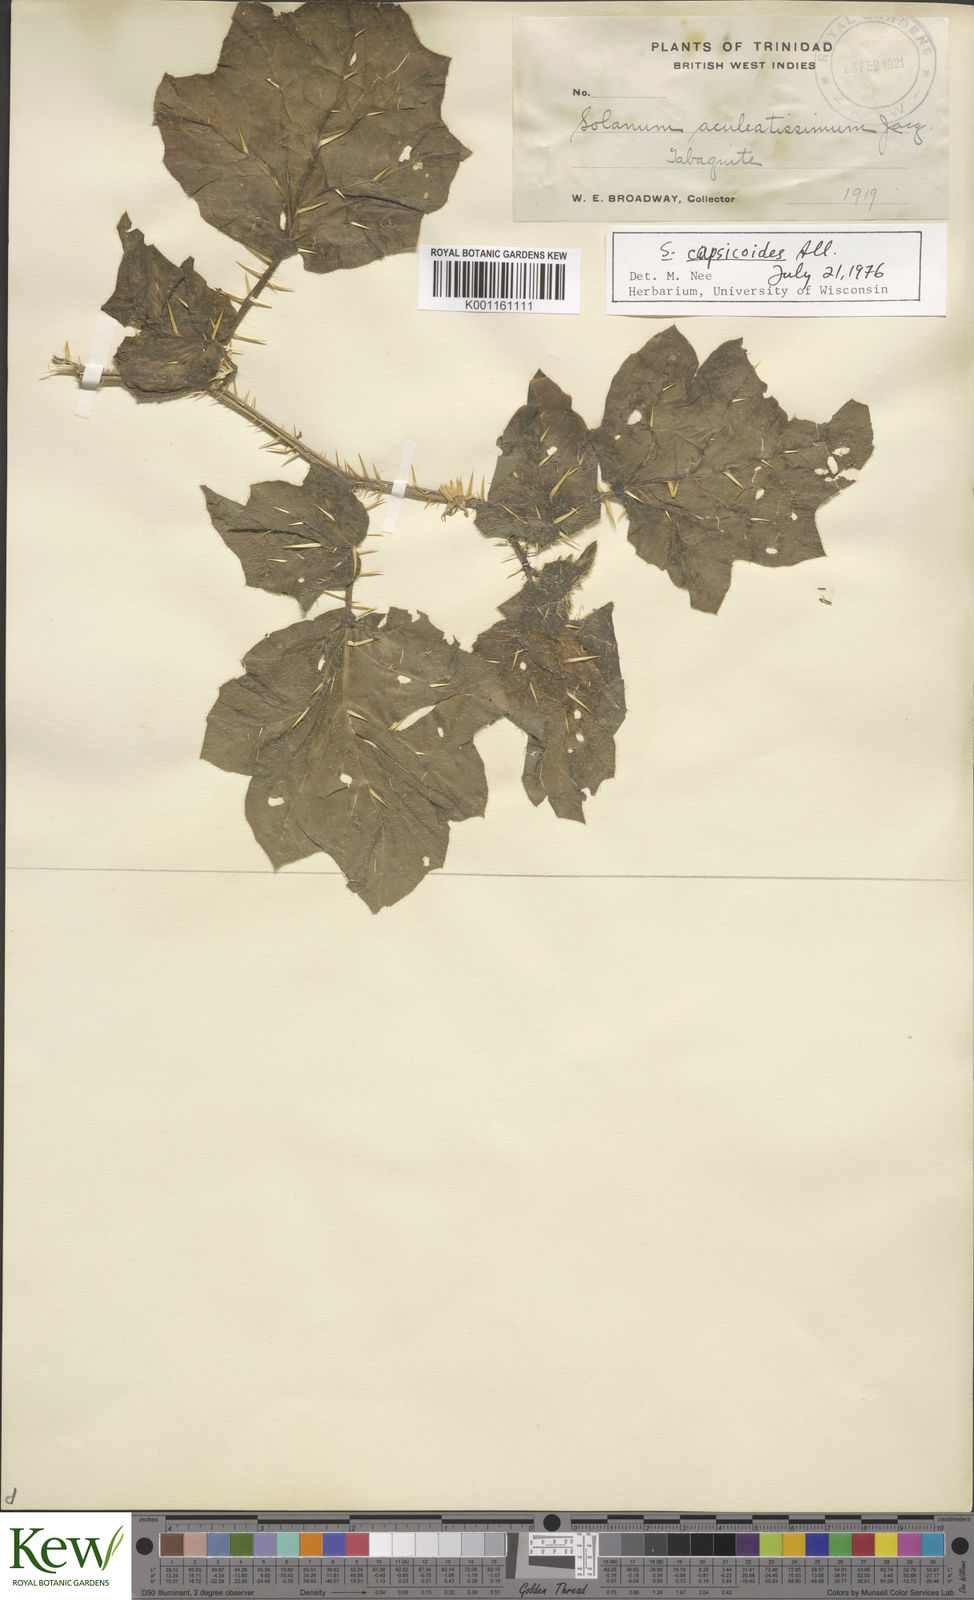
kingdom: Plantae
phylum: Tracheophyta
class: Magnoliopsida
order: Solanales
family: Solanaceae
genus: Solanum
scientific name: Solanum aculeatissimum
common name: Dutch eggplant
